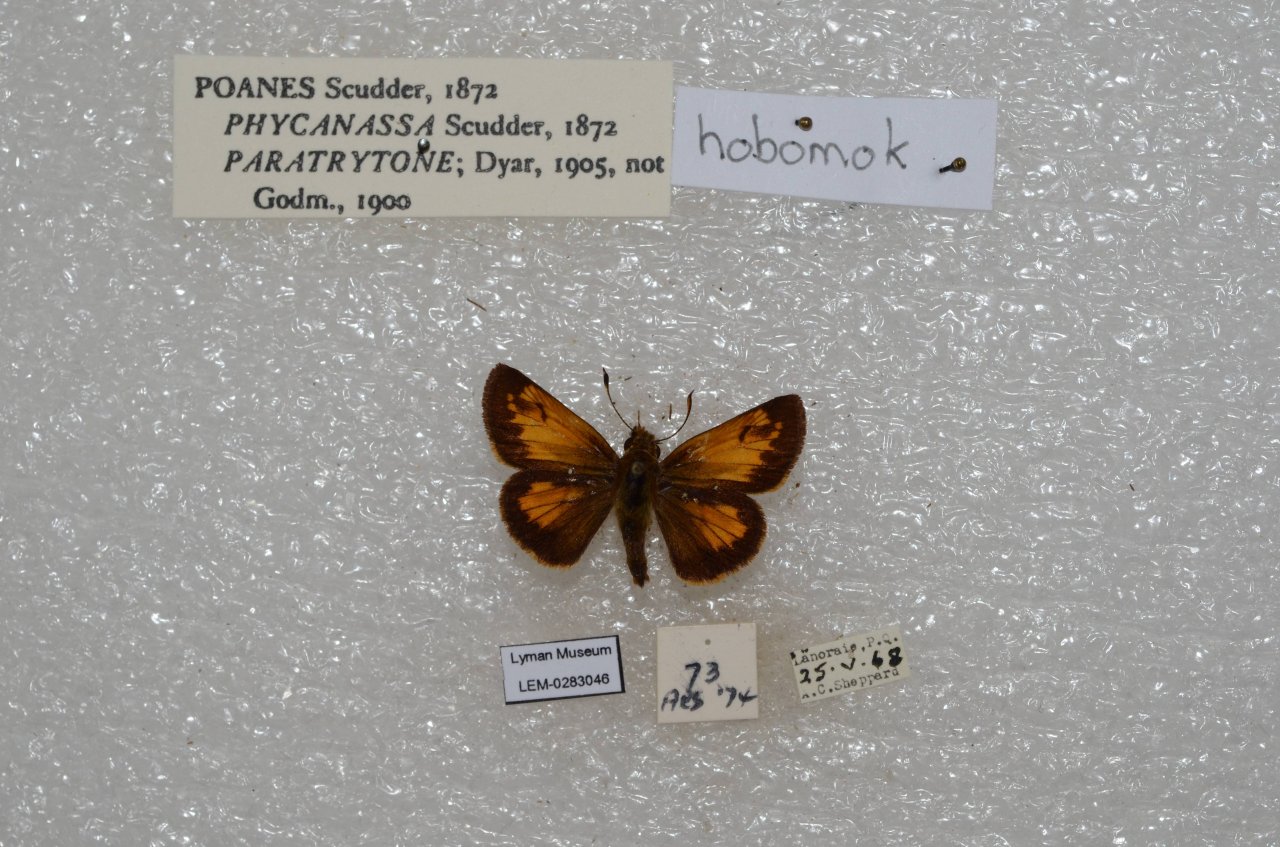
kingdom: Animalia
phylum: Arthropoda
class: Insecta
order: Lepidoptera
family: Hesperiidae
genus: Lon
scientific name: Lon hobomok
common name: Hobomok Skipper
